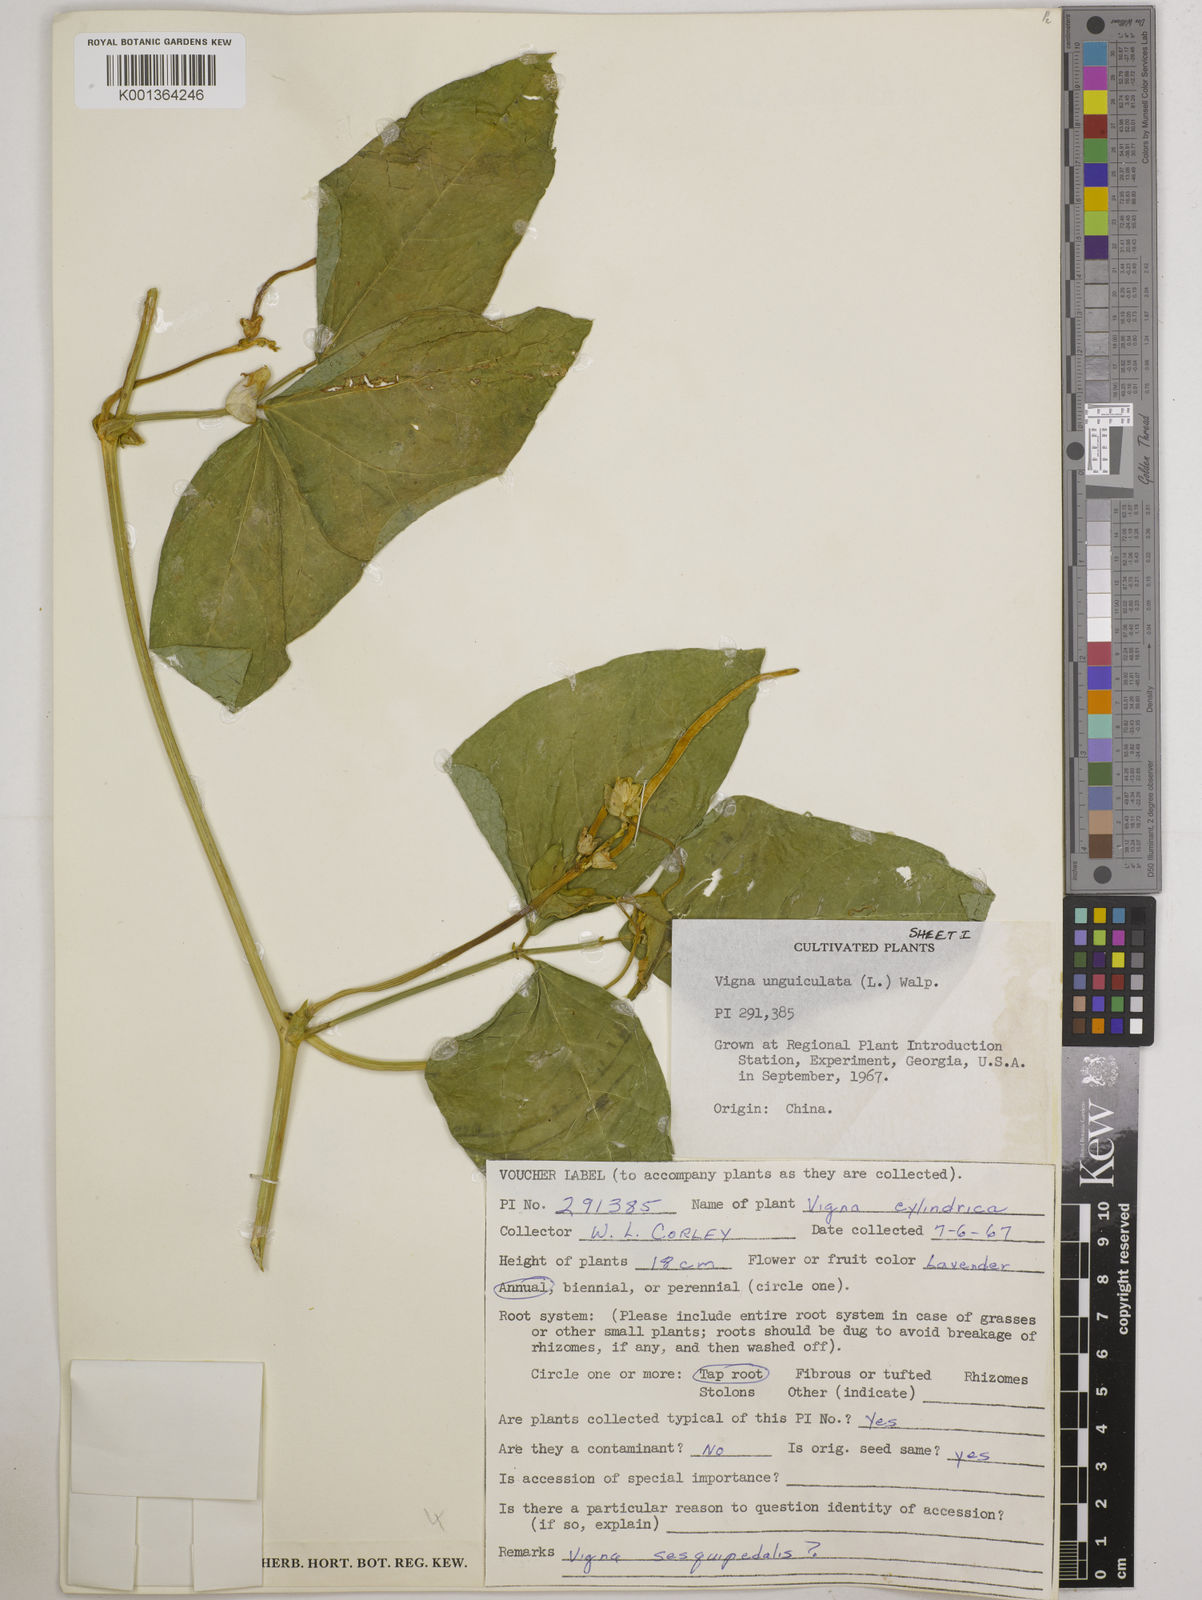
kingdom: Plantae
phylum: Tracheophyta
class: Magnoliopsida
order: Fabales
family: Fabaceae
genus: Vigna
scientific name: Vigna unguiculata
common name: Cowpea
